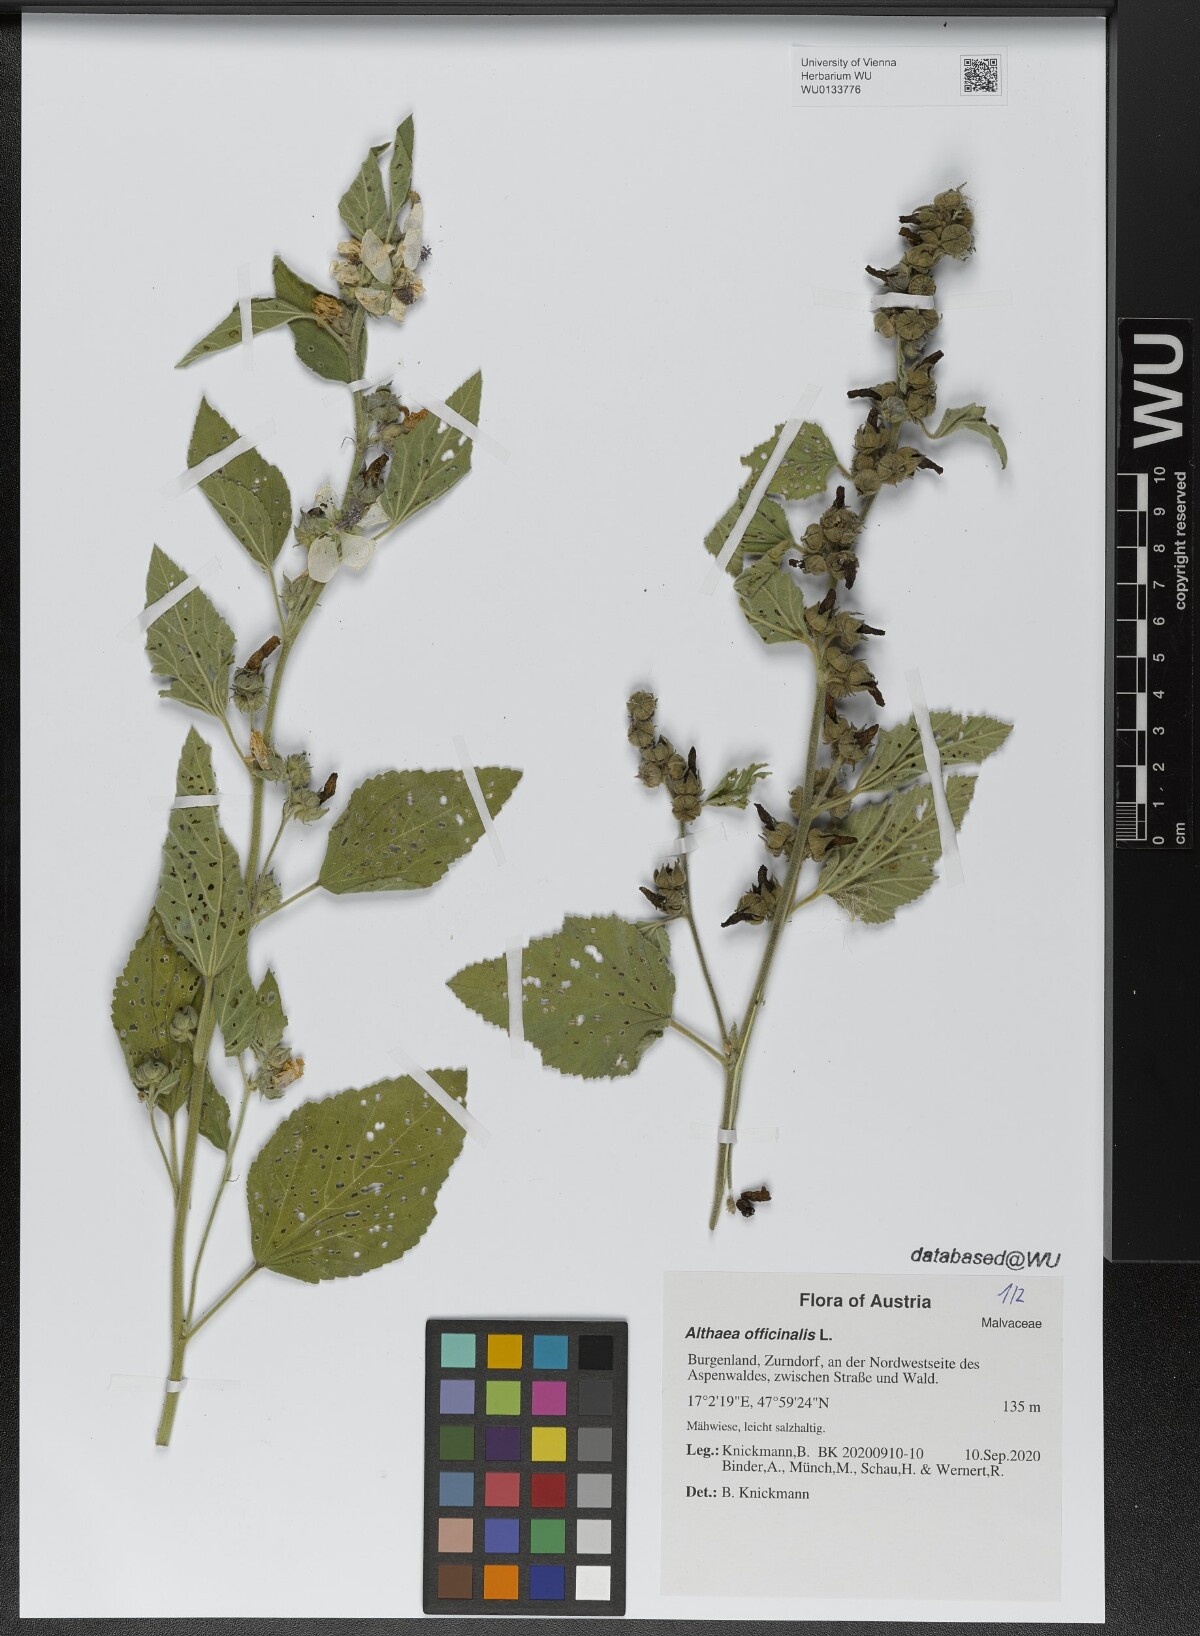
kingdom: Plantae
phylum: Tracheophyta
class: Magnoliopsida
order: Malvales
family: Malvaceae
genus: Althaea
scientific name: Althaea officinalis
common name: Marsh-mallow
